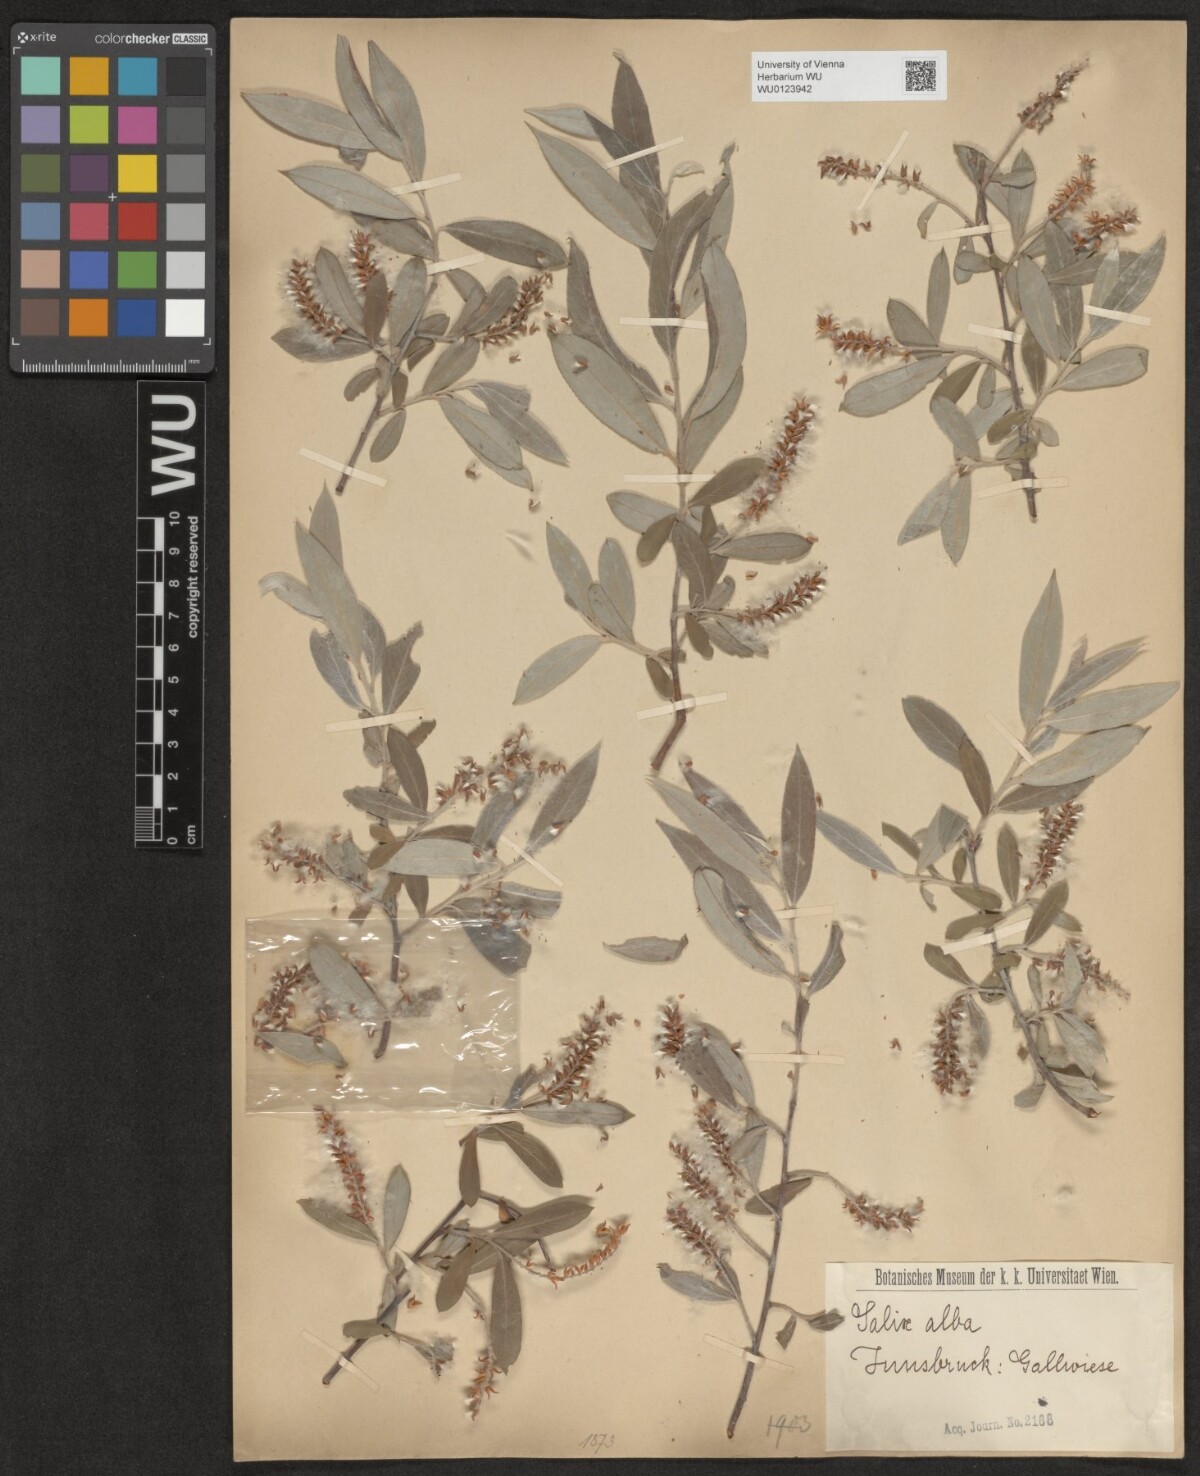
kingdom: Plantae
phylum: Tracheophyta
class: Magnoliopsida
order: Malpighiales
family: Salicaceae
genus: Salix
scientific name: Salix alba
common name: White willow
